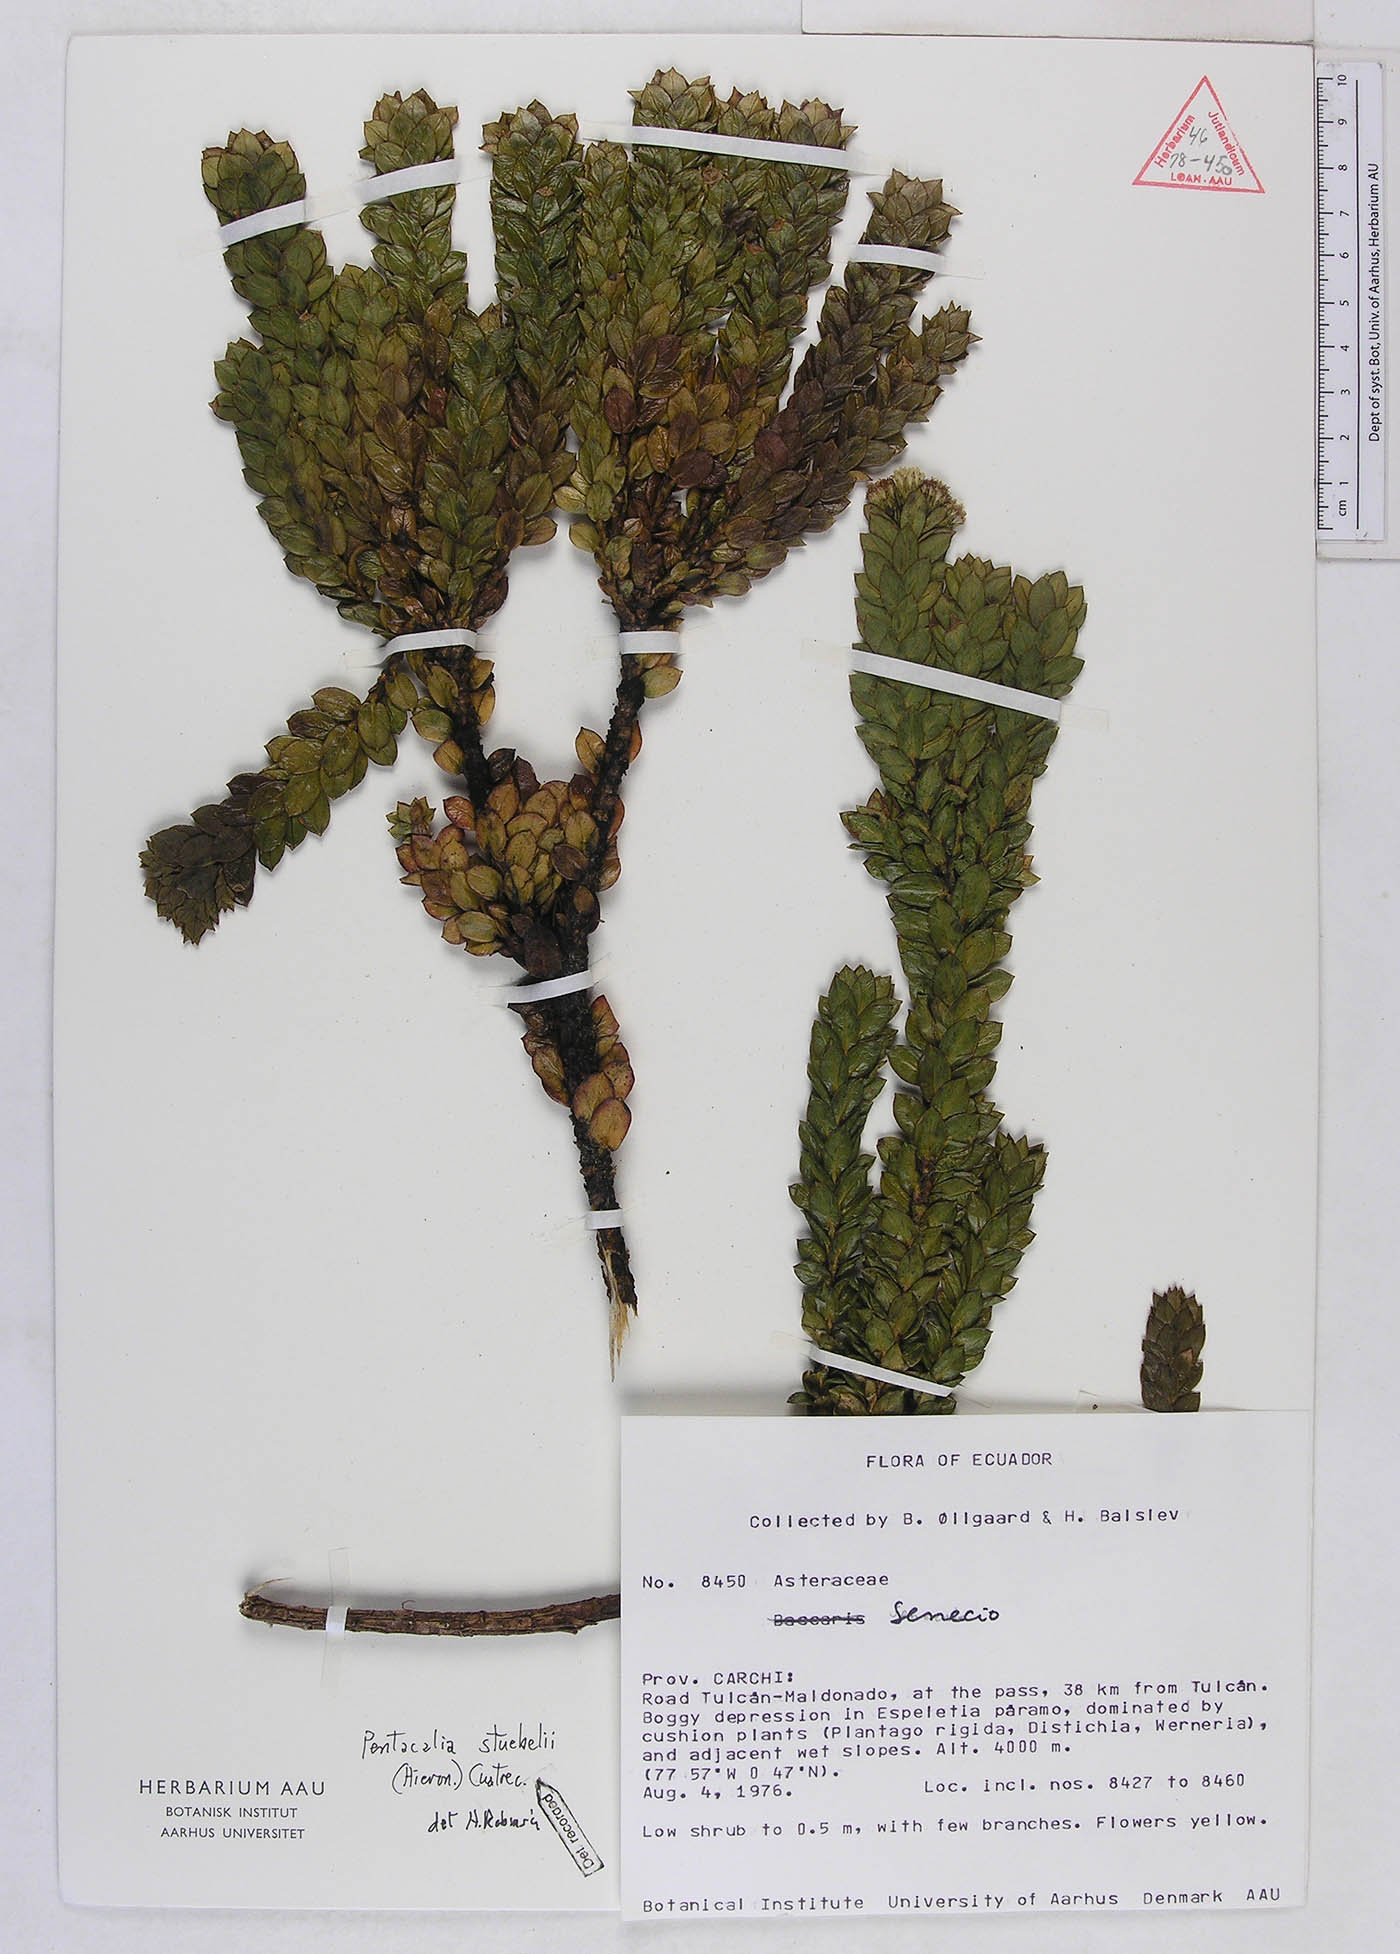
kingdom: Plantae
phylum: Tracheophyta
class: Magnoliopsida
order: Asterales
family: Asteraceae
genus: Monticalia
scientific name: Monticalia stuebelii
